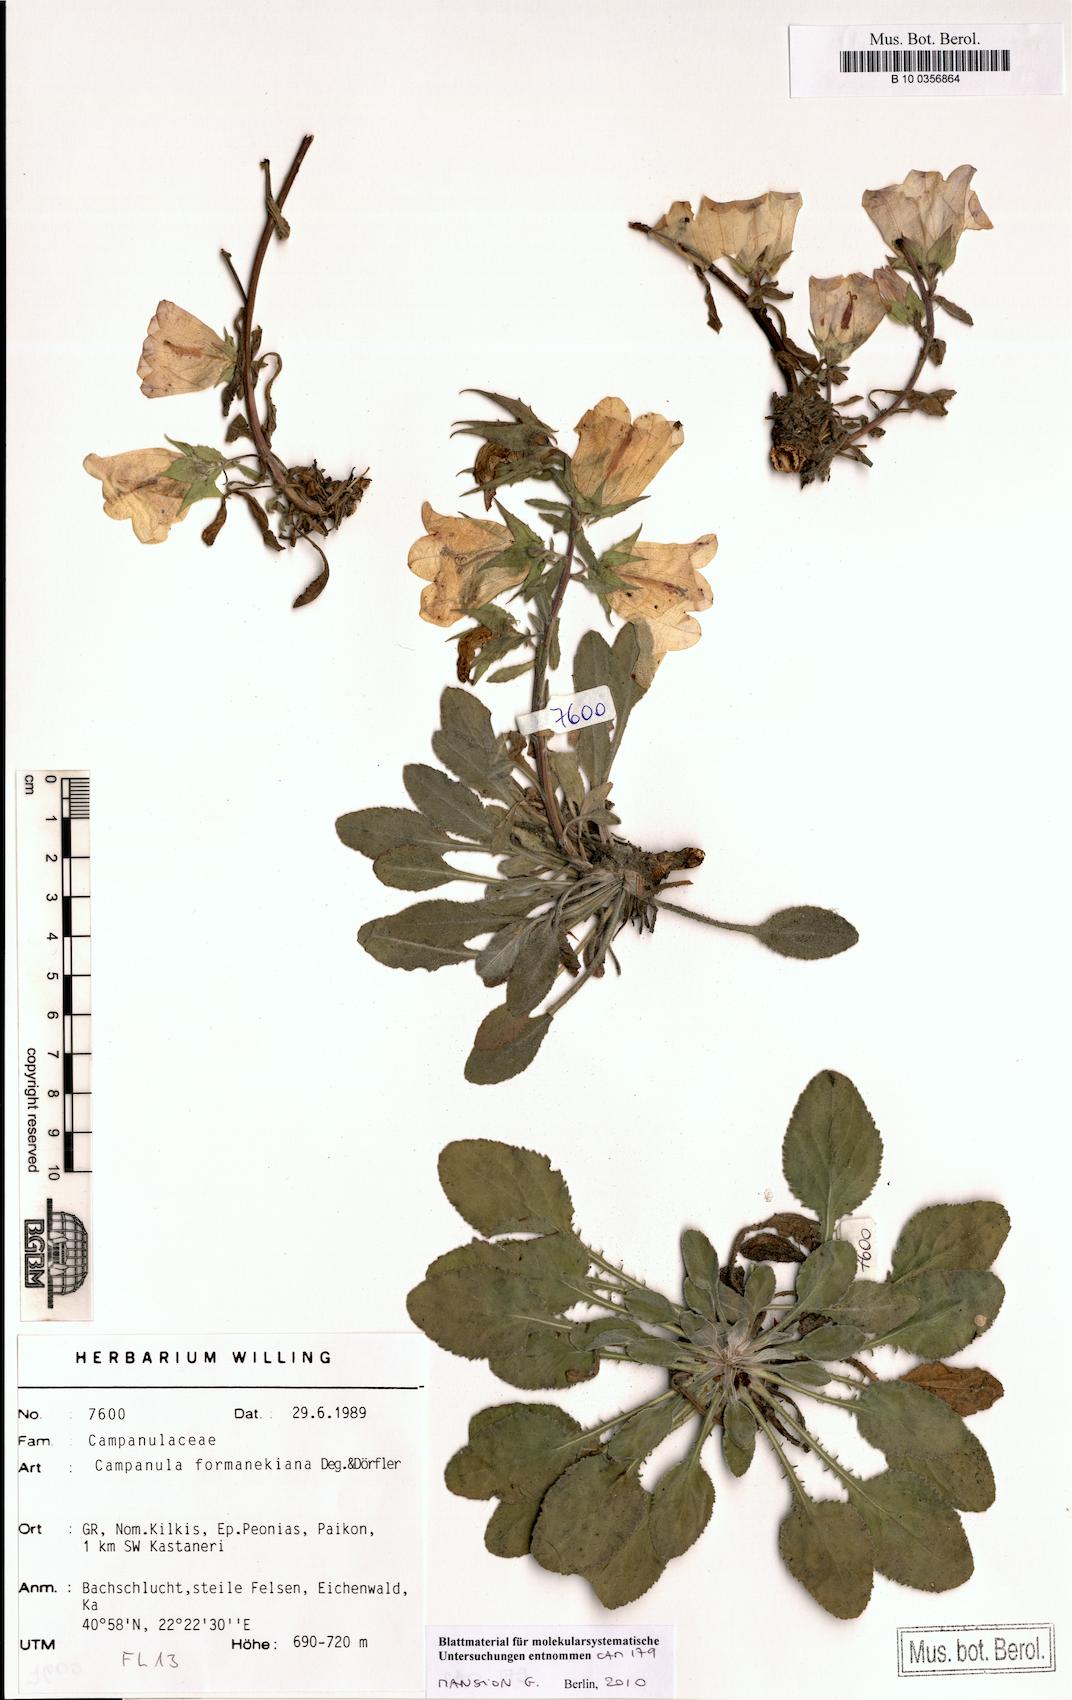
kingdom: Plantae
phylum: Tracheophyta
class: Magnoliopsida
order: Asterales
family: Campanulaceae
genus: Campanula
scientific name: Campanula formanekiana
